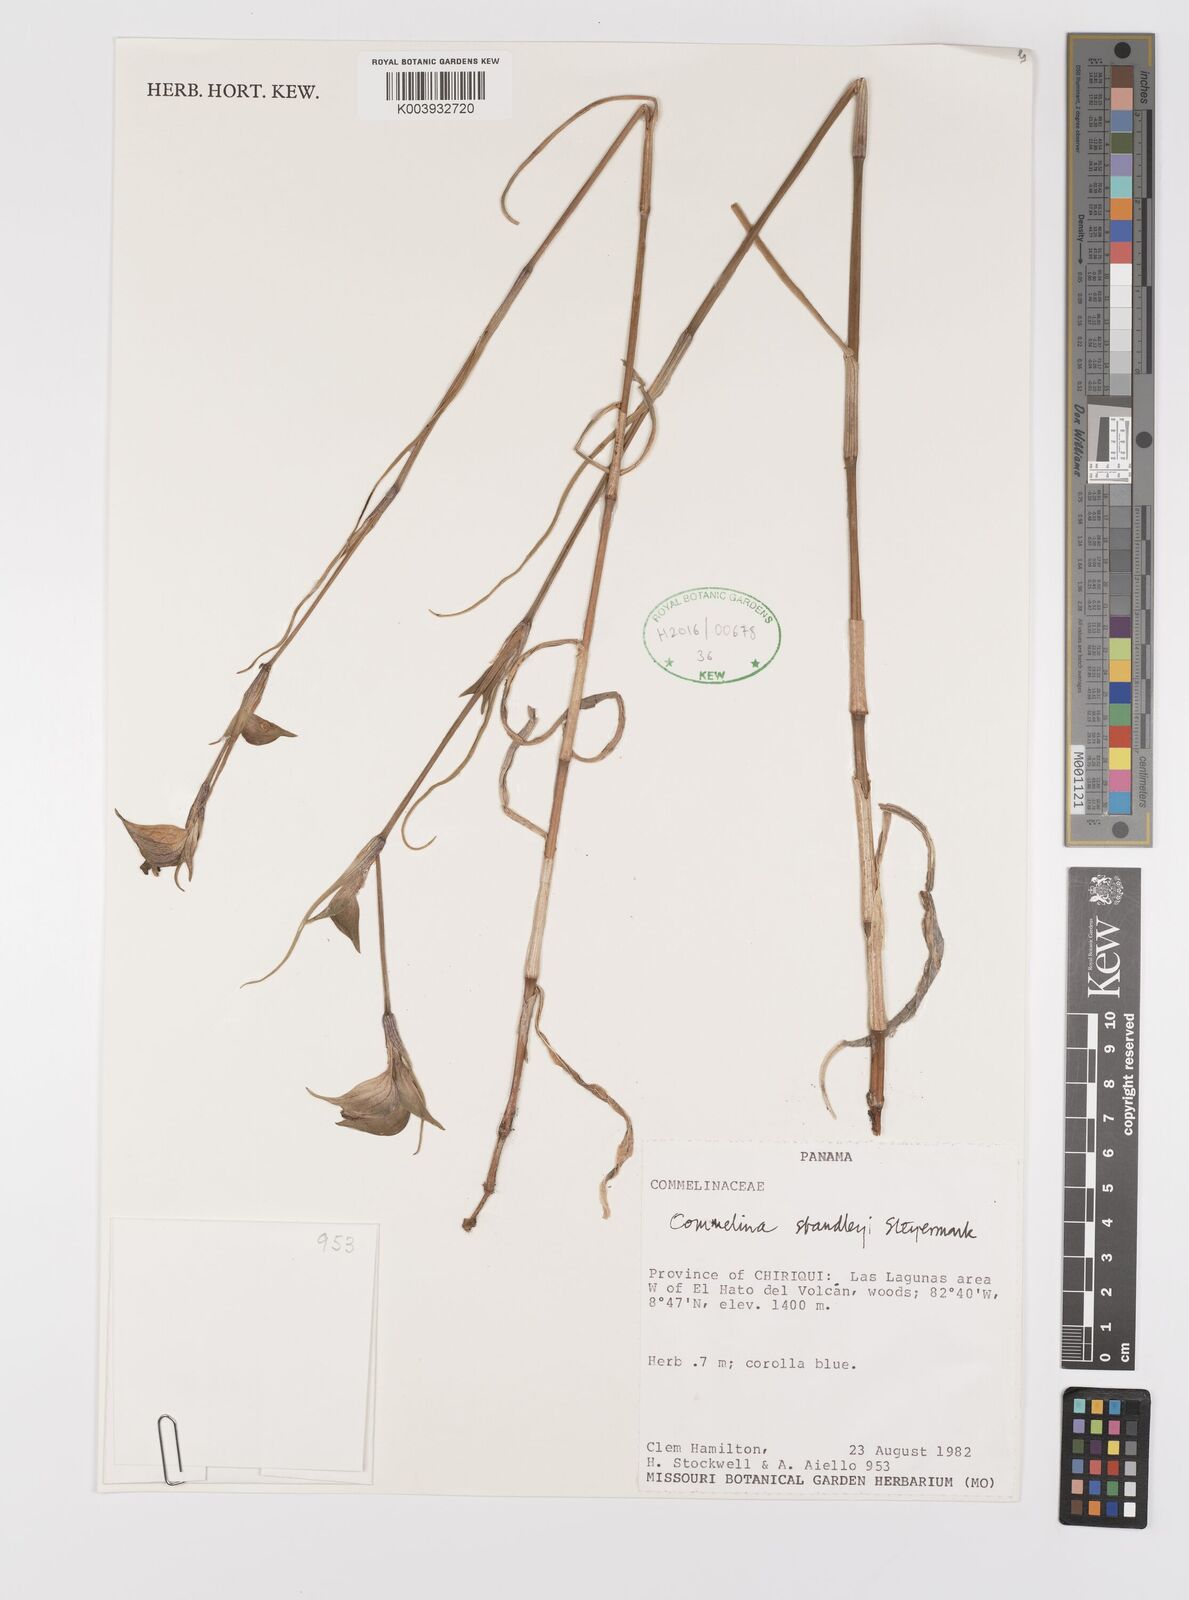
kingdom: Plantae
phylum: Tracheophyta
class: Liliopsida
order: Commelinales
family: Commelinaceae
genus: Commelina
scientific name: Commelina standleyi
